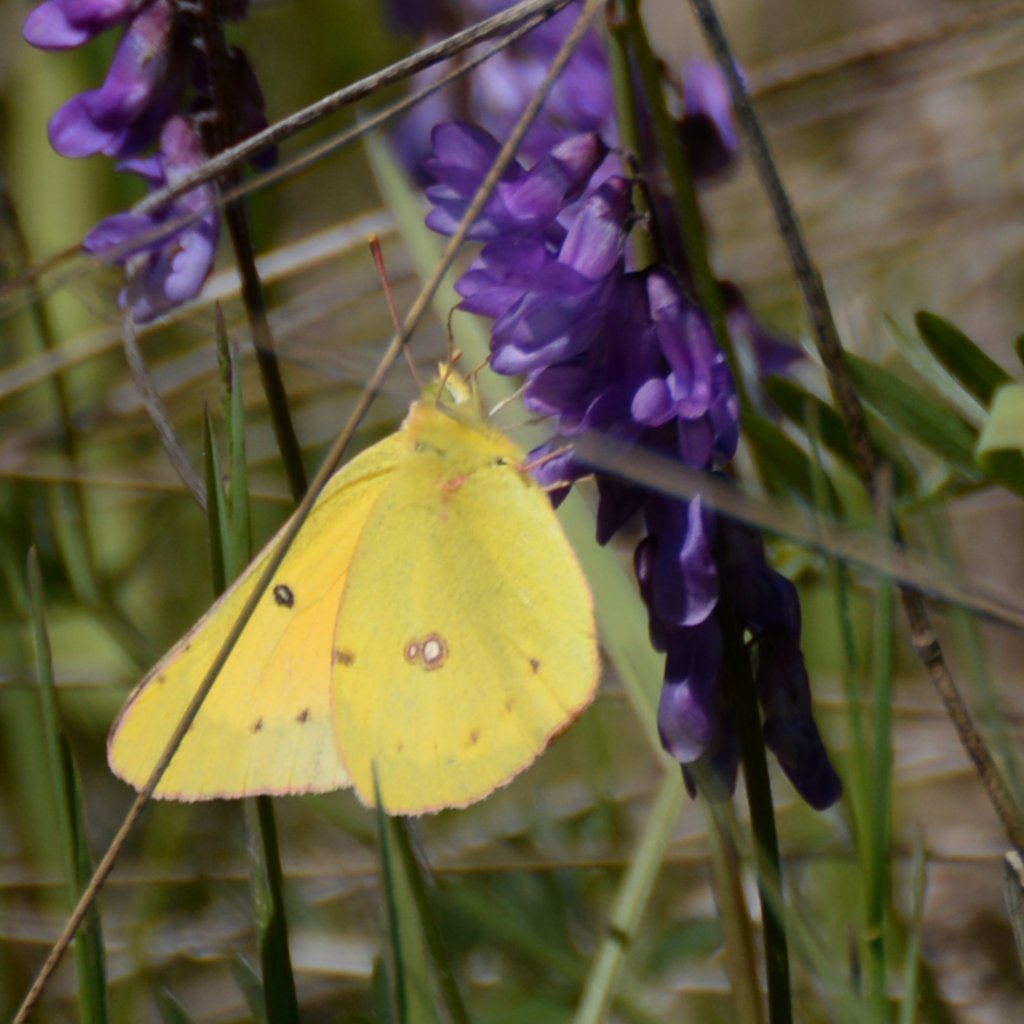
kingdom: Animalia
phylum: Arthropoda
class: Insecta
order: Lepidoptera
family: Pieridae
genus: Colias
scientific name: Colias eurytheme
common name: Orange Sulphur
